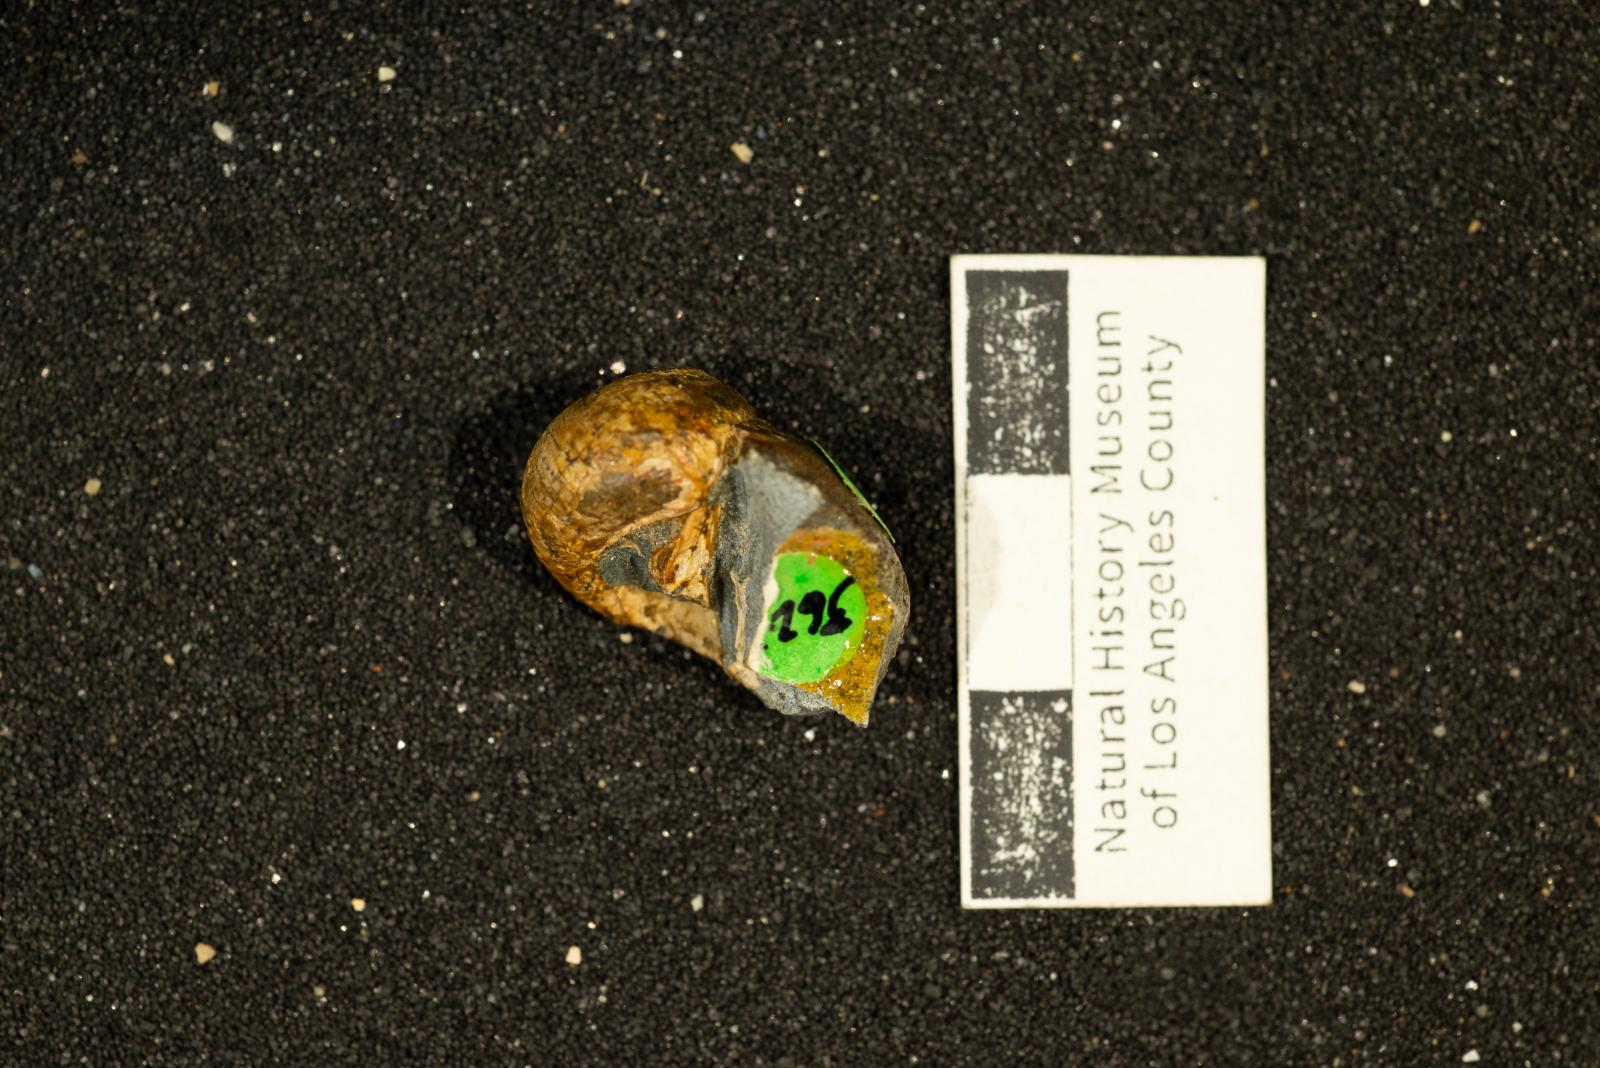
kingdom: Animalia
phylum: Mollusca
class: Gastropoda
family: Gyrodidae
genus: Gyrodes
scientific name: Gyrodes banites
